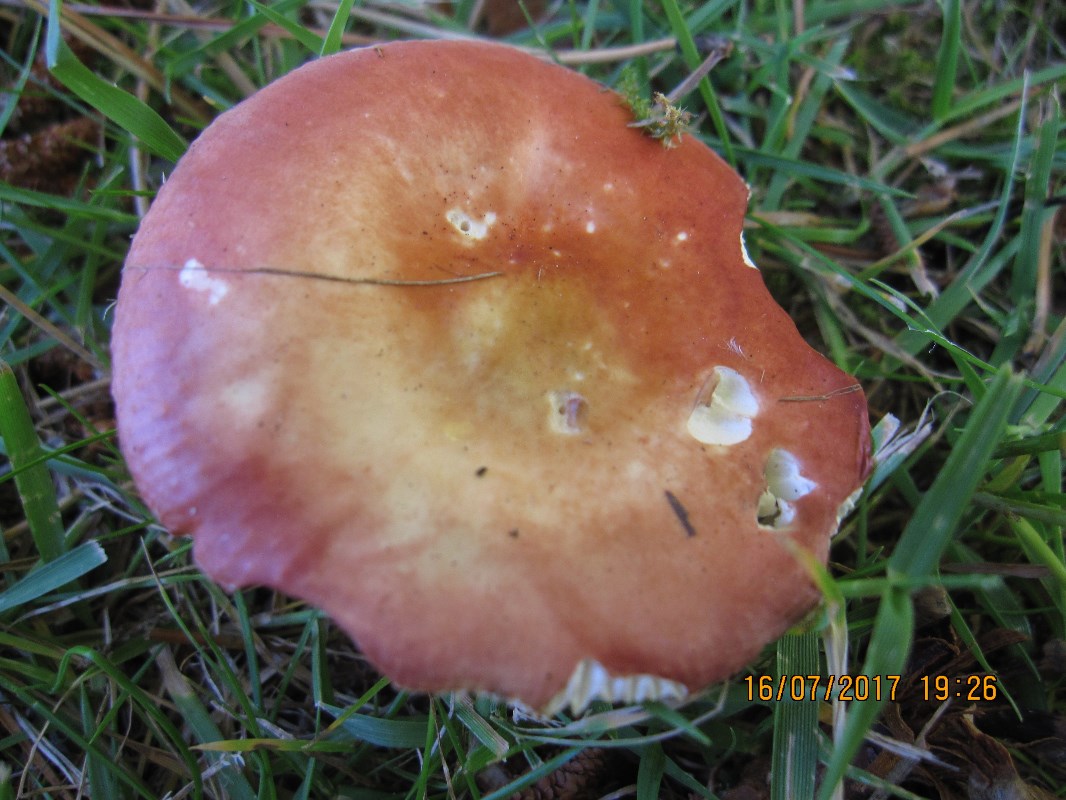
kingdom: Fungi
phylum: Basidiomycota
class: Agaricomycetes
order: Russulales
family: Russulaceae
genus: Russula
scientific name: Russula velenovskyi
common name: orangerød skørhat
